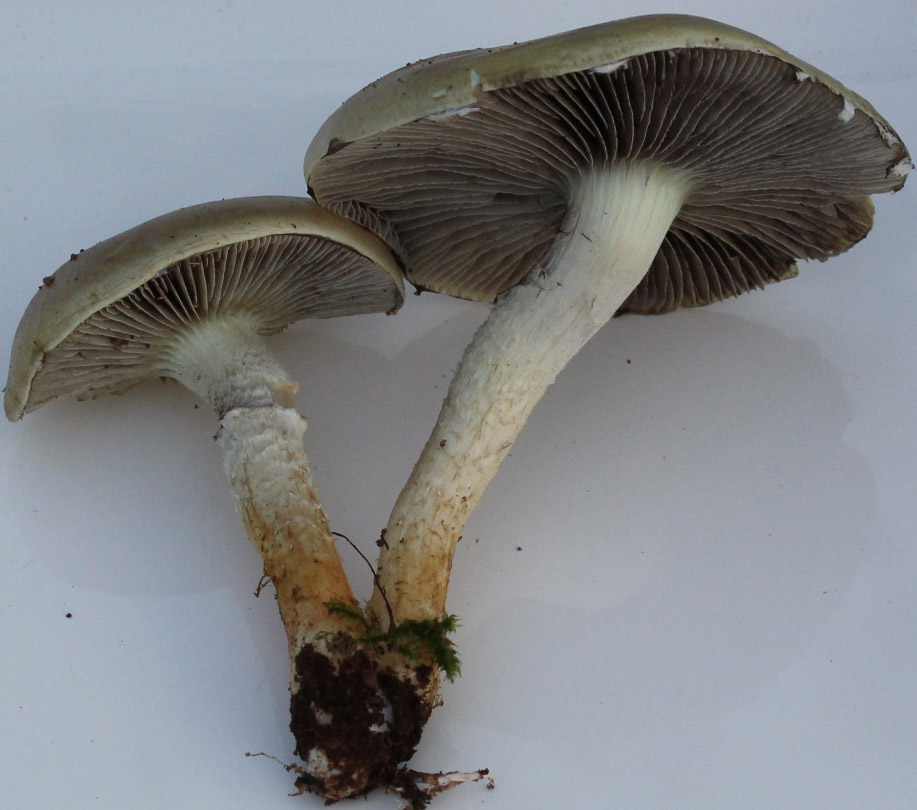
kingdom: Fungi
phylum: Basidiomycota
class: Agaricomycetes
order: Agaricales
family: Strophariaceae
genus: Stropharia
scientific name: Stropharia hornemannii
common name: nordisk bredblad
